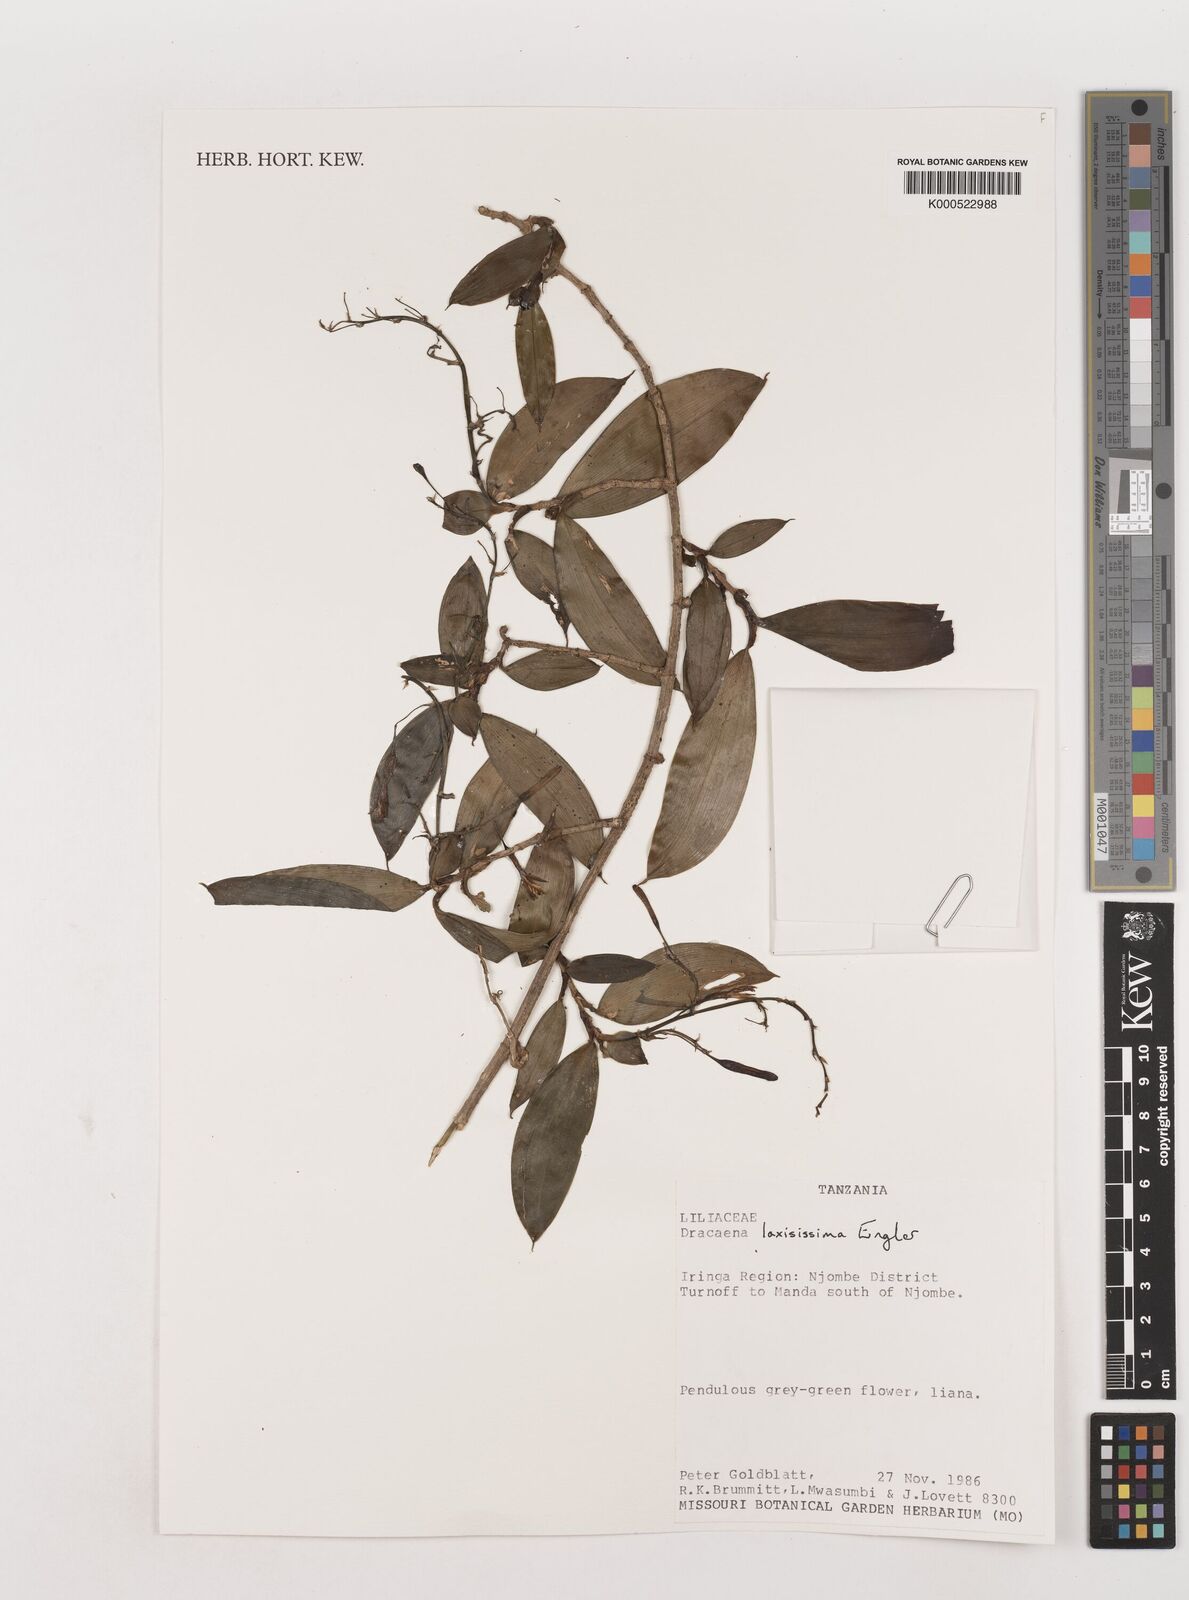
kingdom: Plantae
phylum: Tracheophyta
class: Liliopsida
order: Asparagales
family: Asparagaceae
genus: Dracaena
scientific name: Dracaena laxissima
